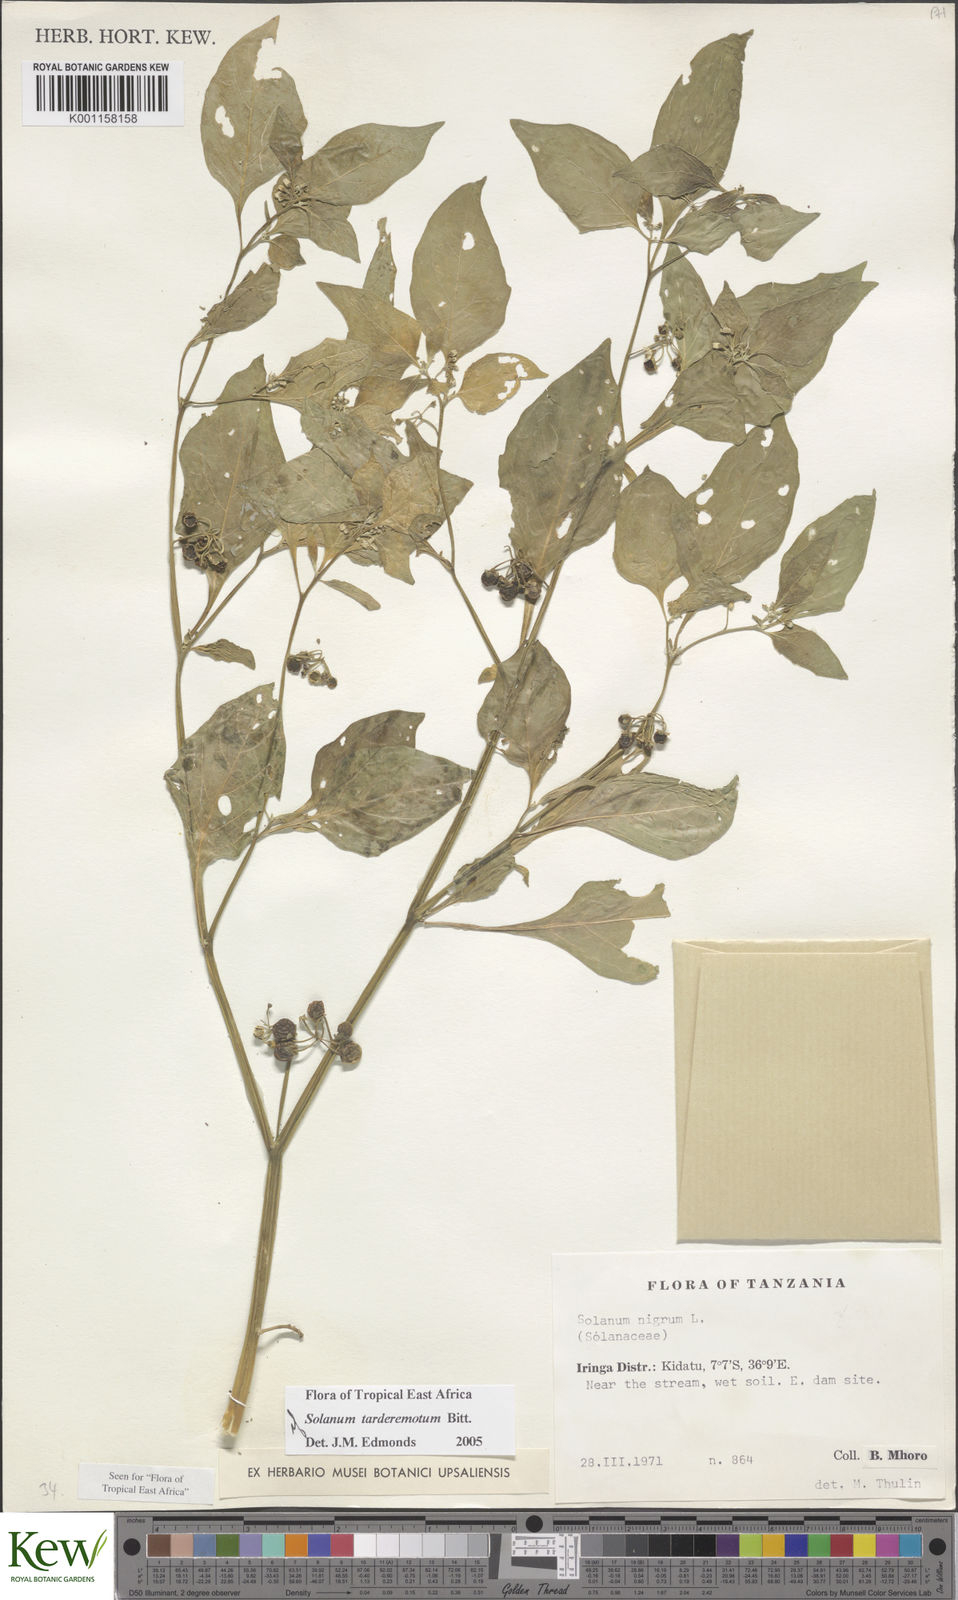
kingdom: Plantae
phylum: Tracheophyta
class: Magnoliopsida
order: Solanales
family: Solanaceae
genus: Solanum
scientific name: Solanum tarderemotum
